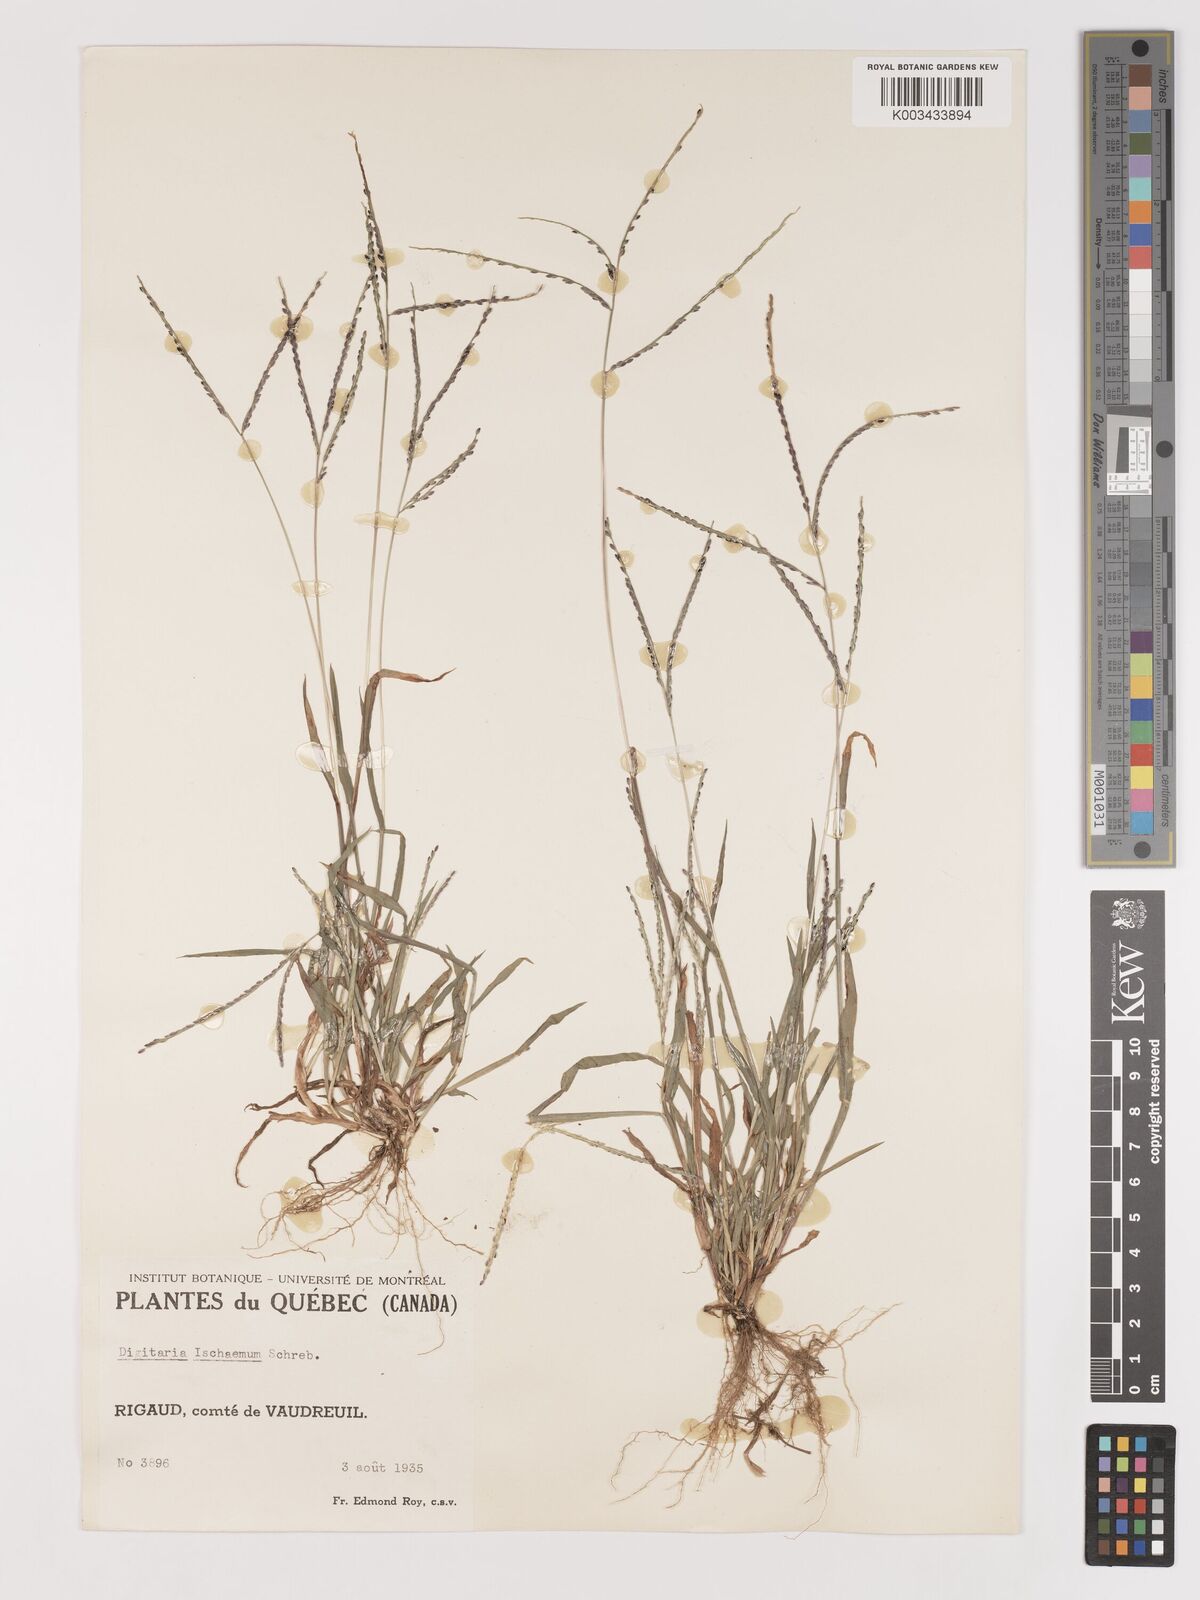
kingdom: Plantae
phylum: Tracheophyta
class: Liliopsida
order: Poales
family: Poaceae
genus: Digitaria
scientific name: Digitaria ischaemum
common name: Smooth crabgrass
